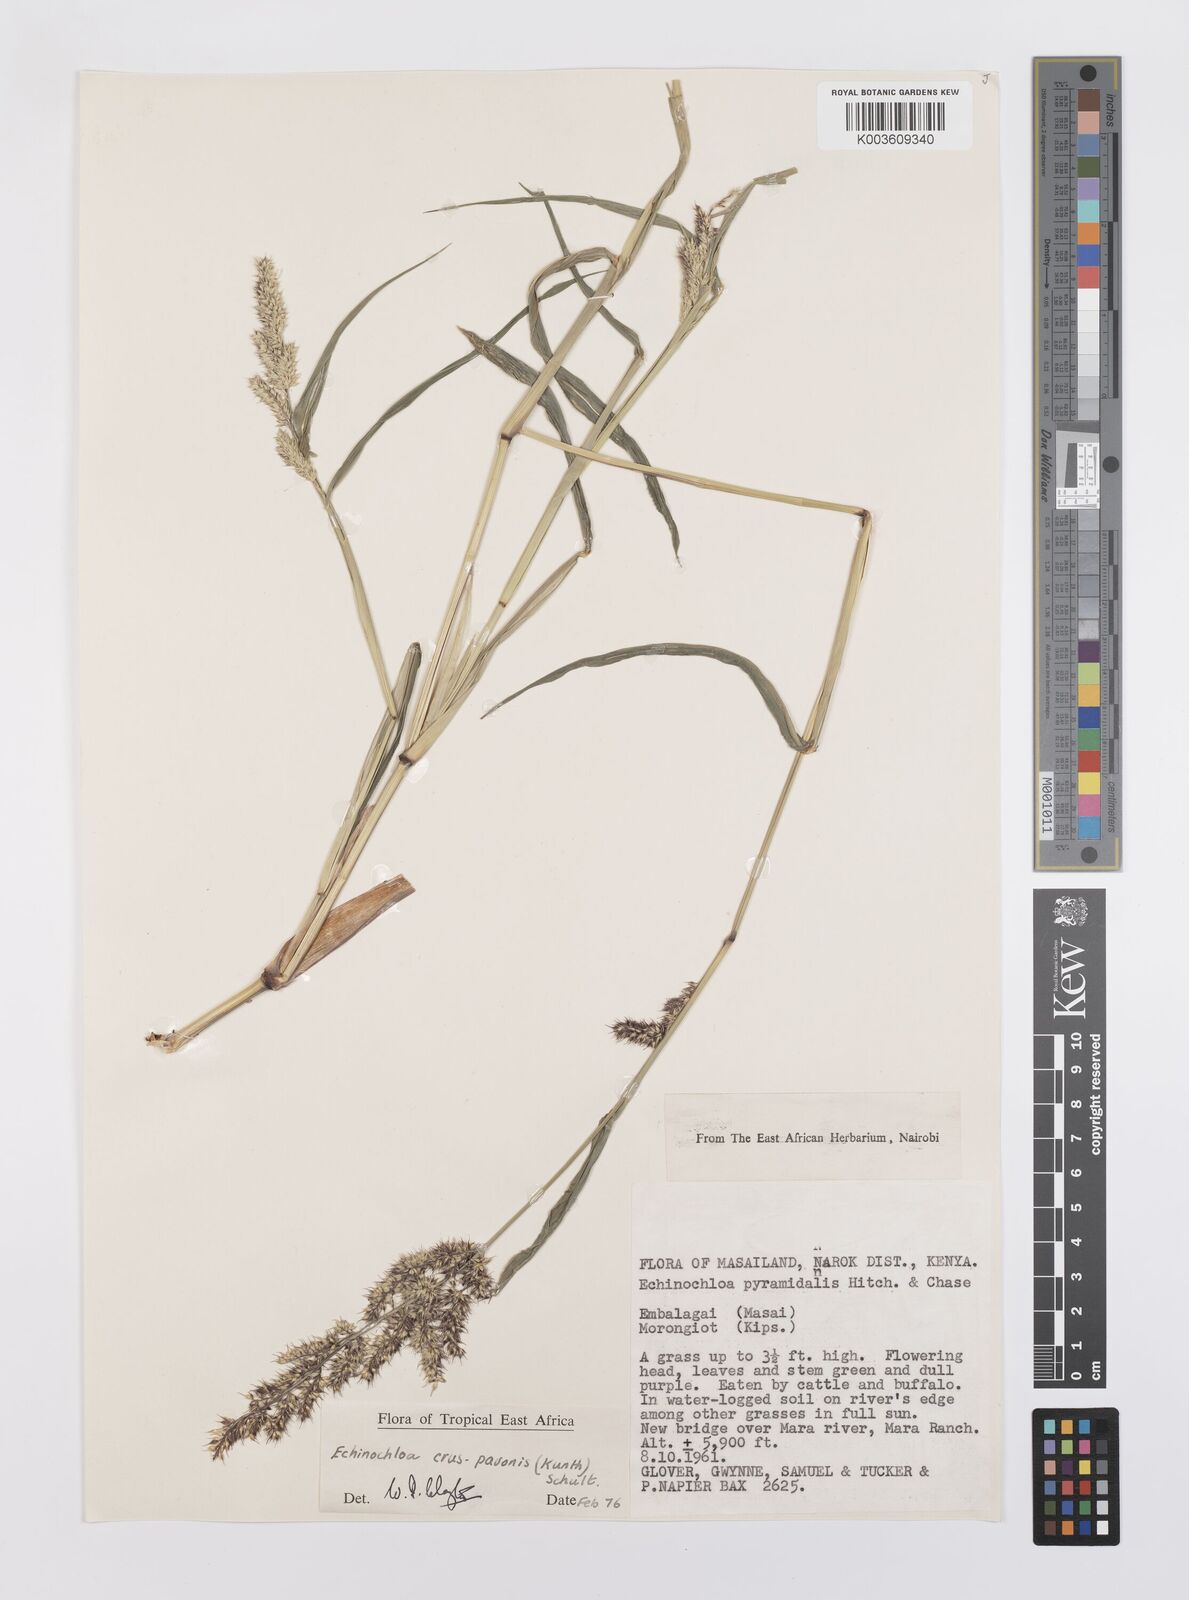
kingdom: Plantae
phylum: Tracheophyta
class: Liliopsida
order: Poales
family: Poaceae
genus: Echinochloa
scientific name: Echinochloa crus-pavonis
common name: Gulf cockspur grass
